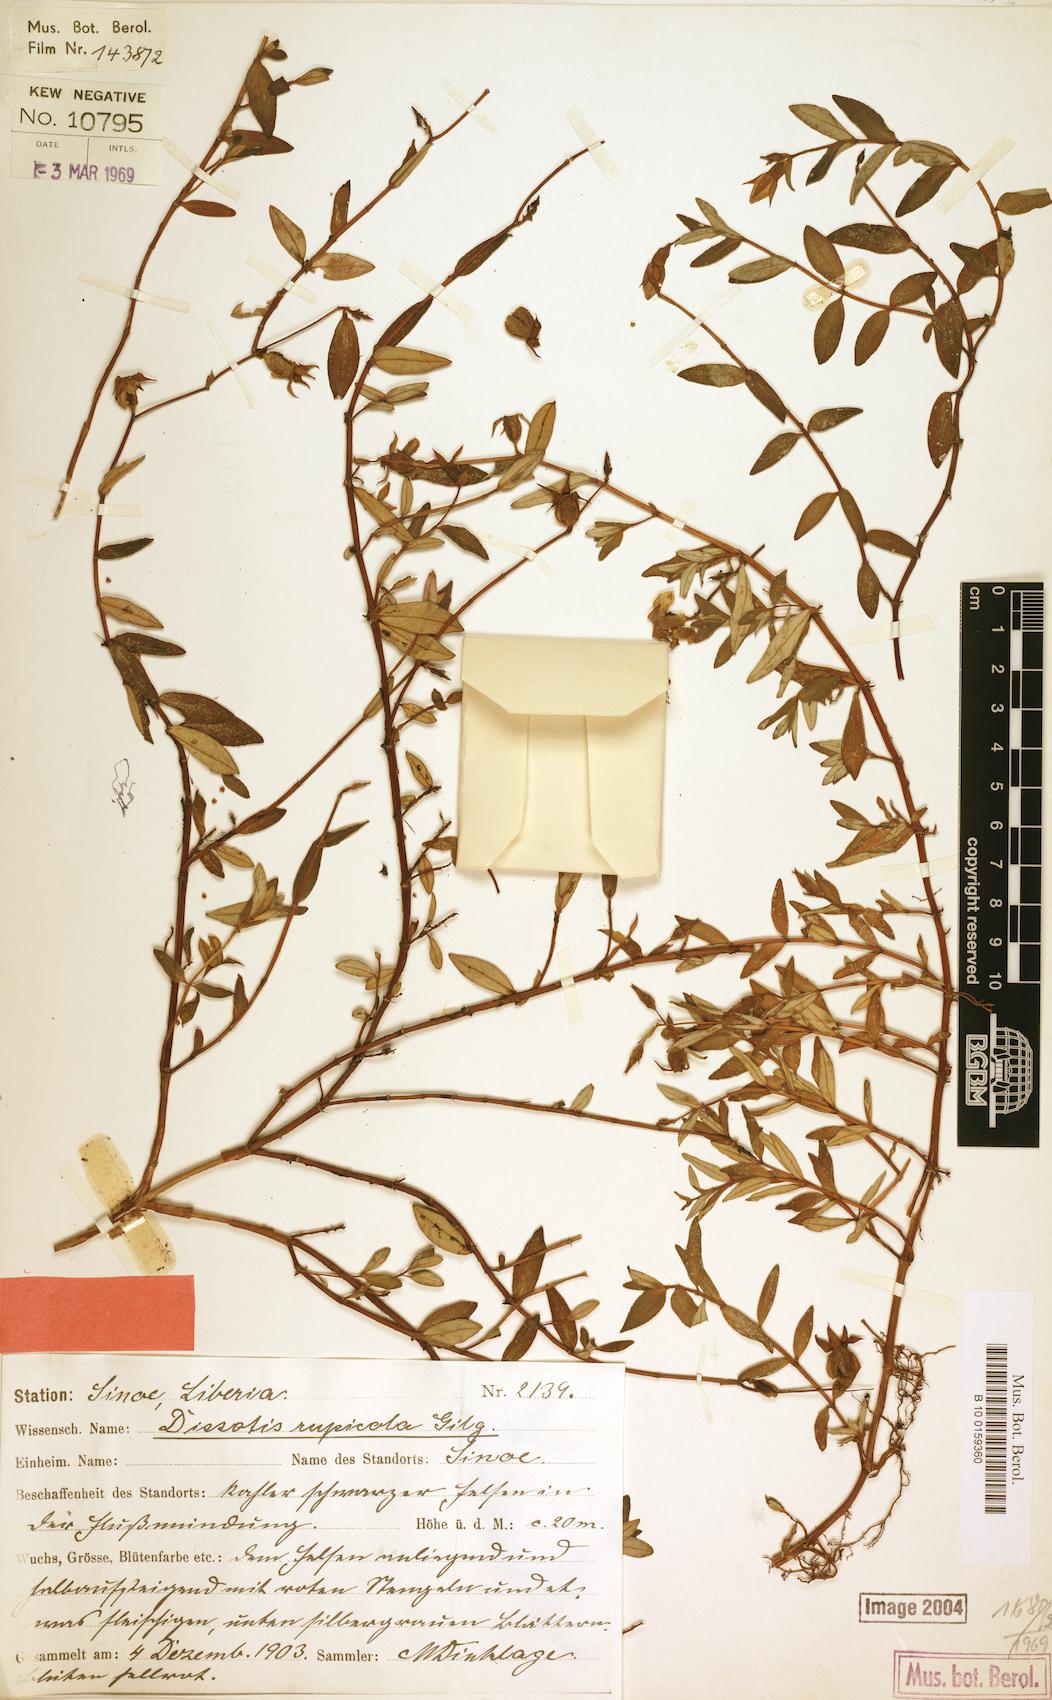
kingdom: Plantae
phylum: Tracheophyta
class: Magnoliopsida
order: Myrtales
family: Melastomataceae
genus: Guyonia
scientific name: Guyonia rupicola
